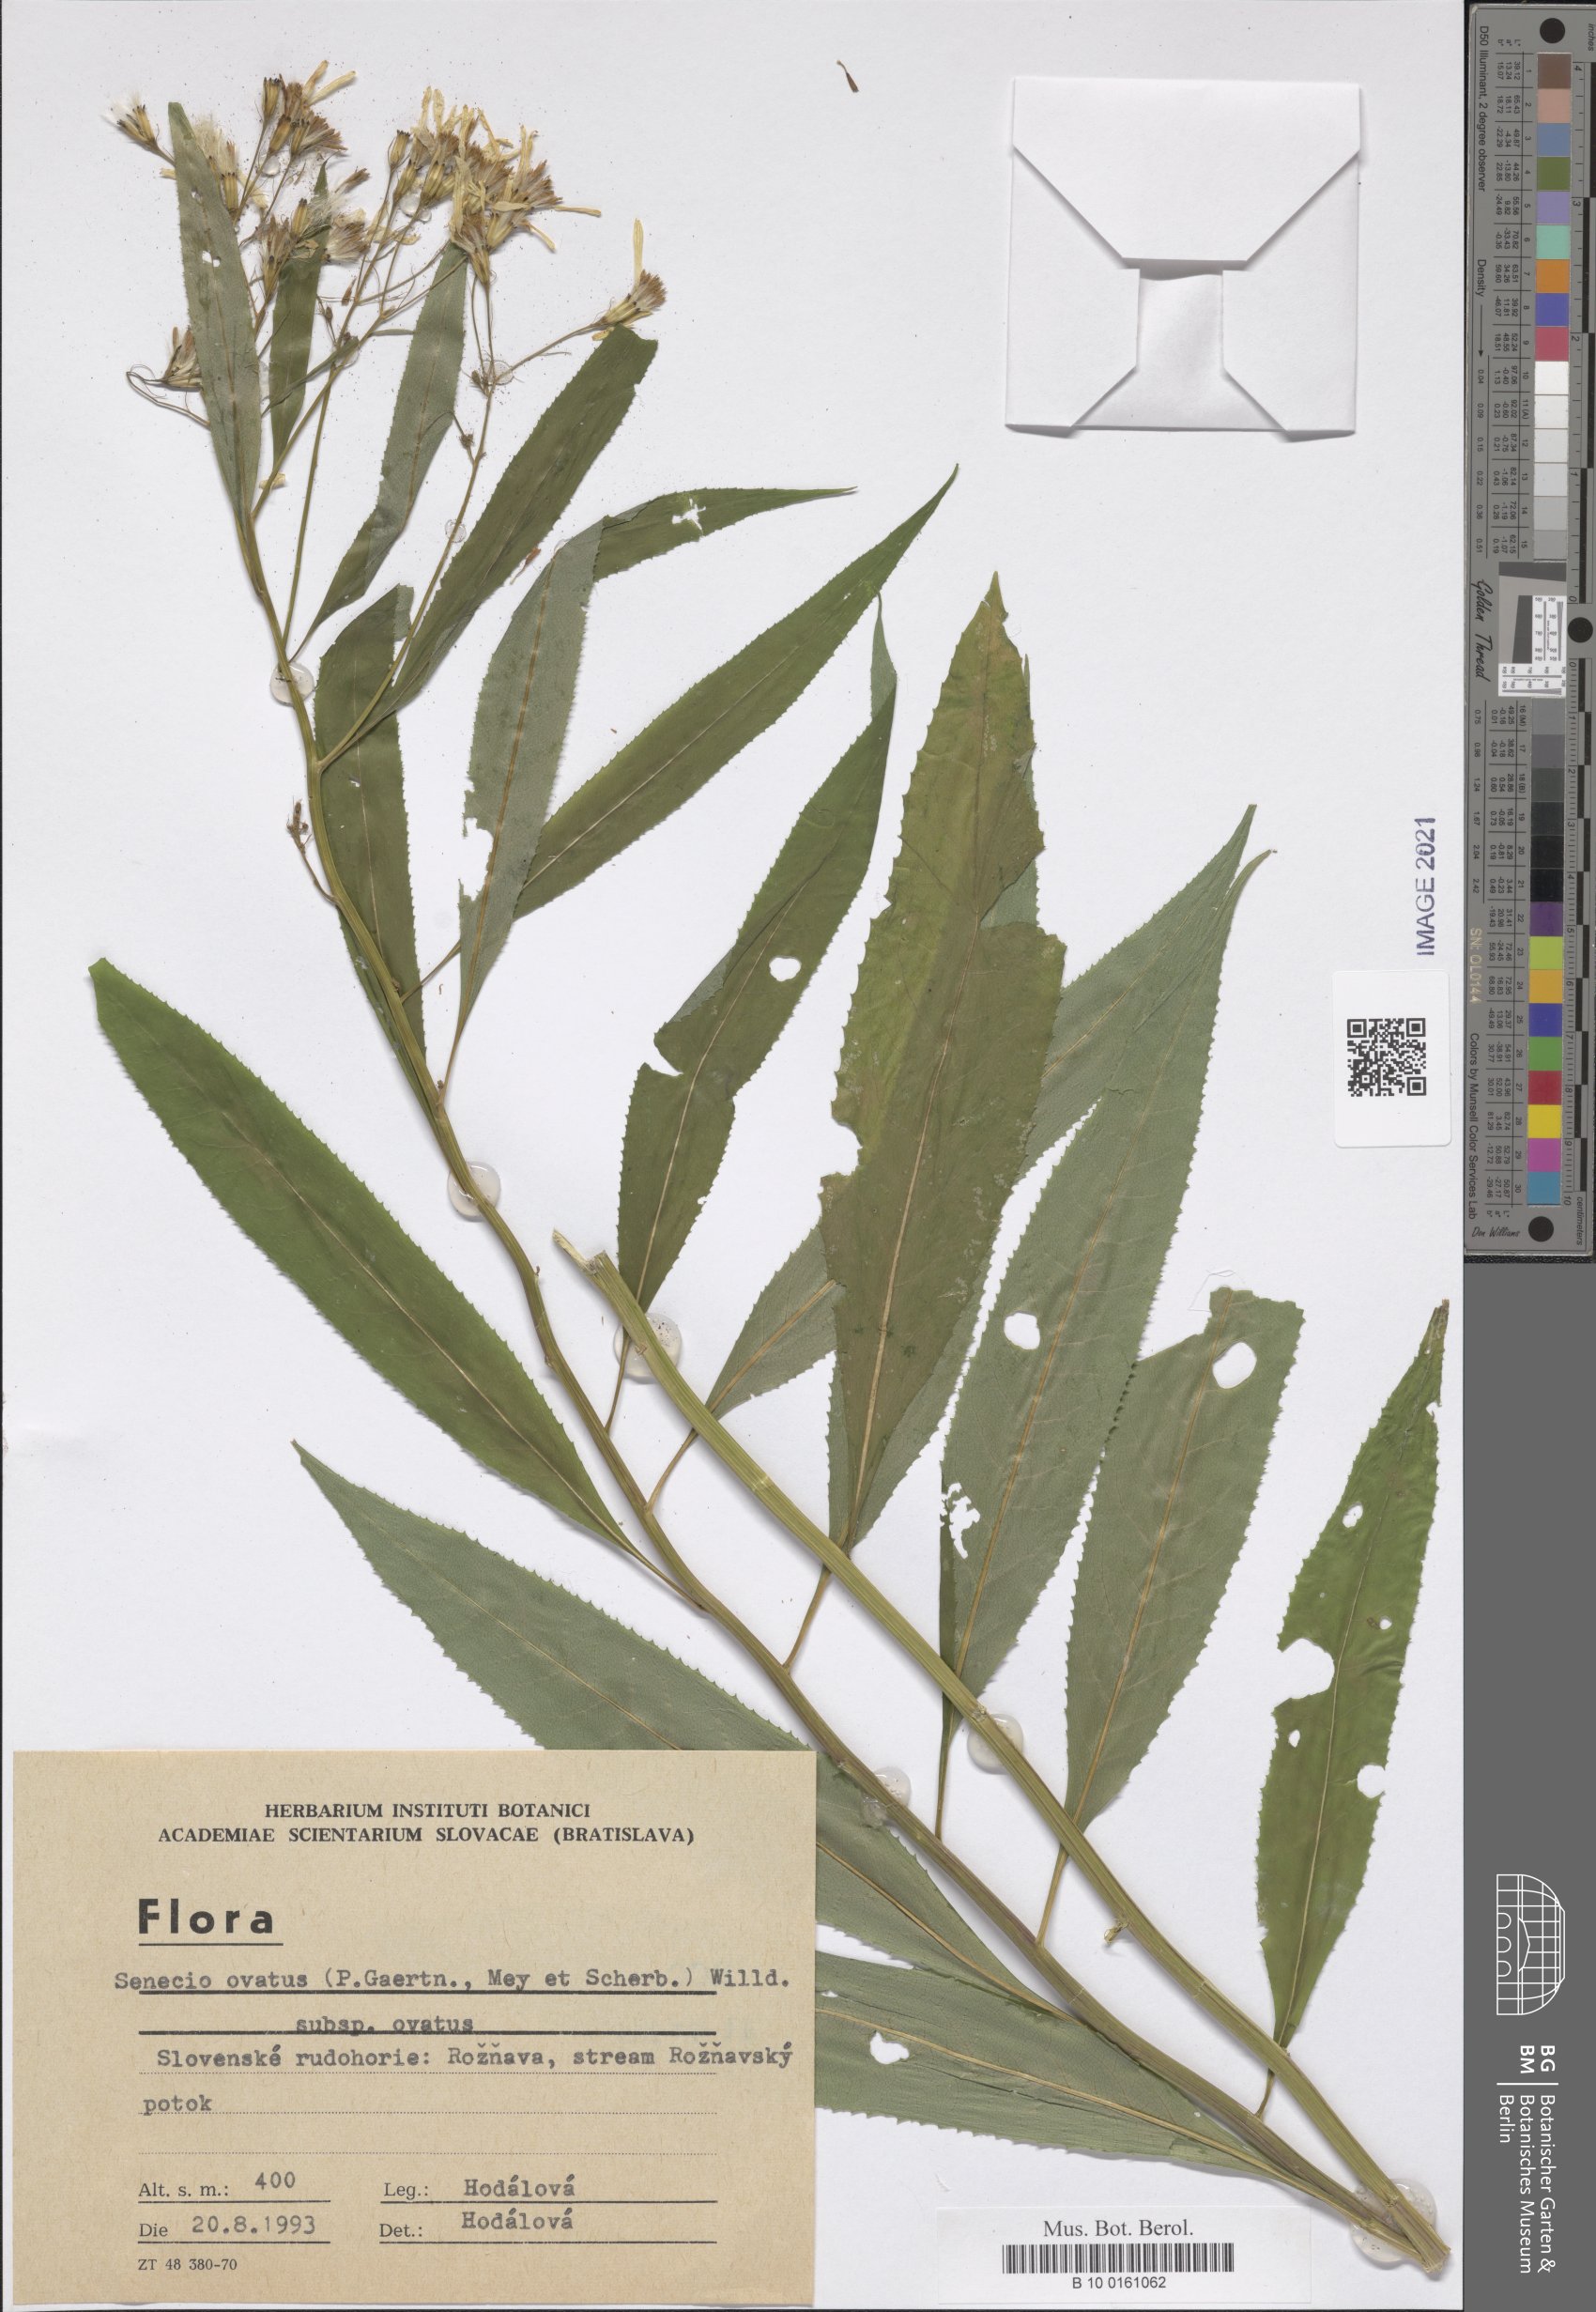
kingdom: Plantae
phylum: Tracheophyta
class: Magnoliopsida
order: Asterales
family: Asteraceae
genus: Senecio
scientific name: Senecio ovatus
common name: Wood ragwort
